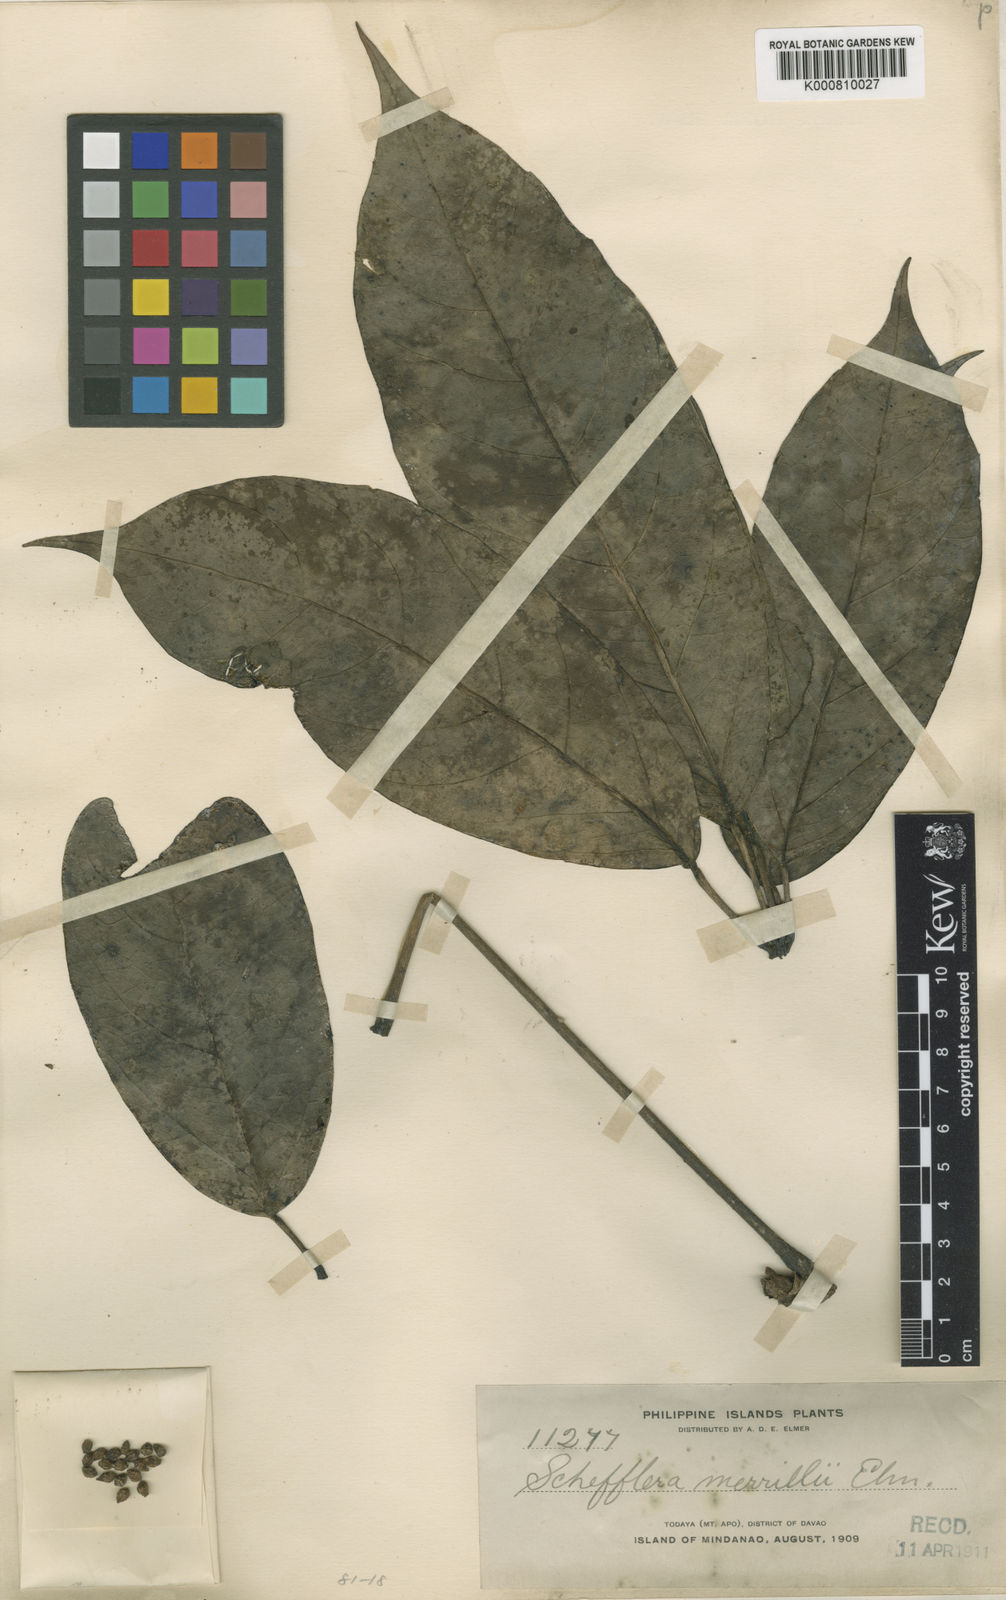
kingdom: Plantae
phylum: Tracheophyta
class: Magnoliopsida
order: Apiales
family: Araliaceae
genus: Heptapleurum
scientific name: Heptapleurum merrillii
